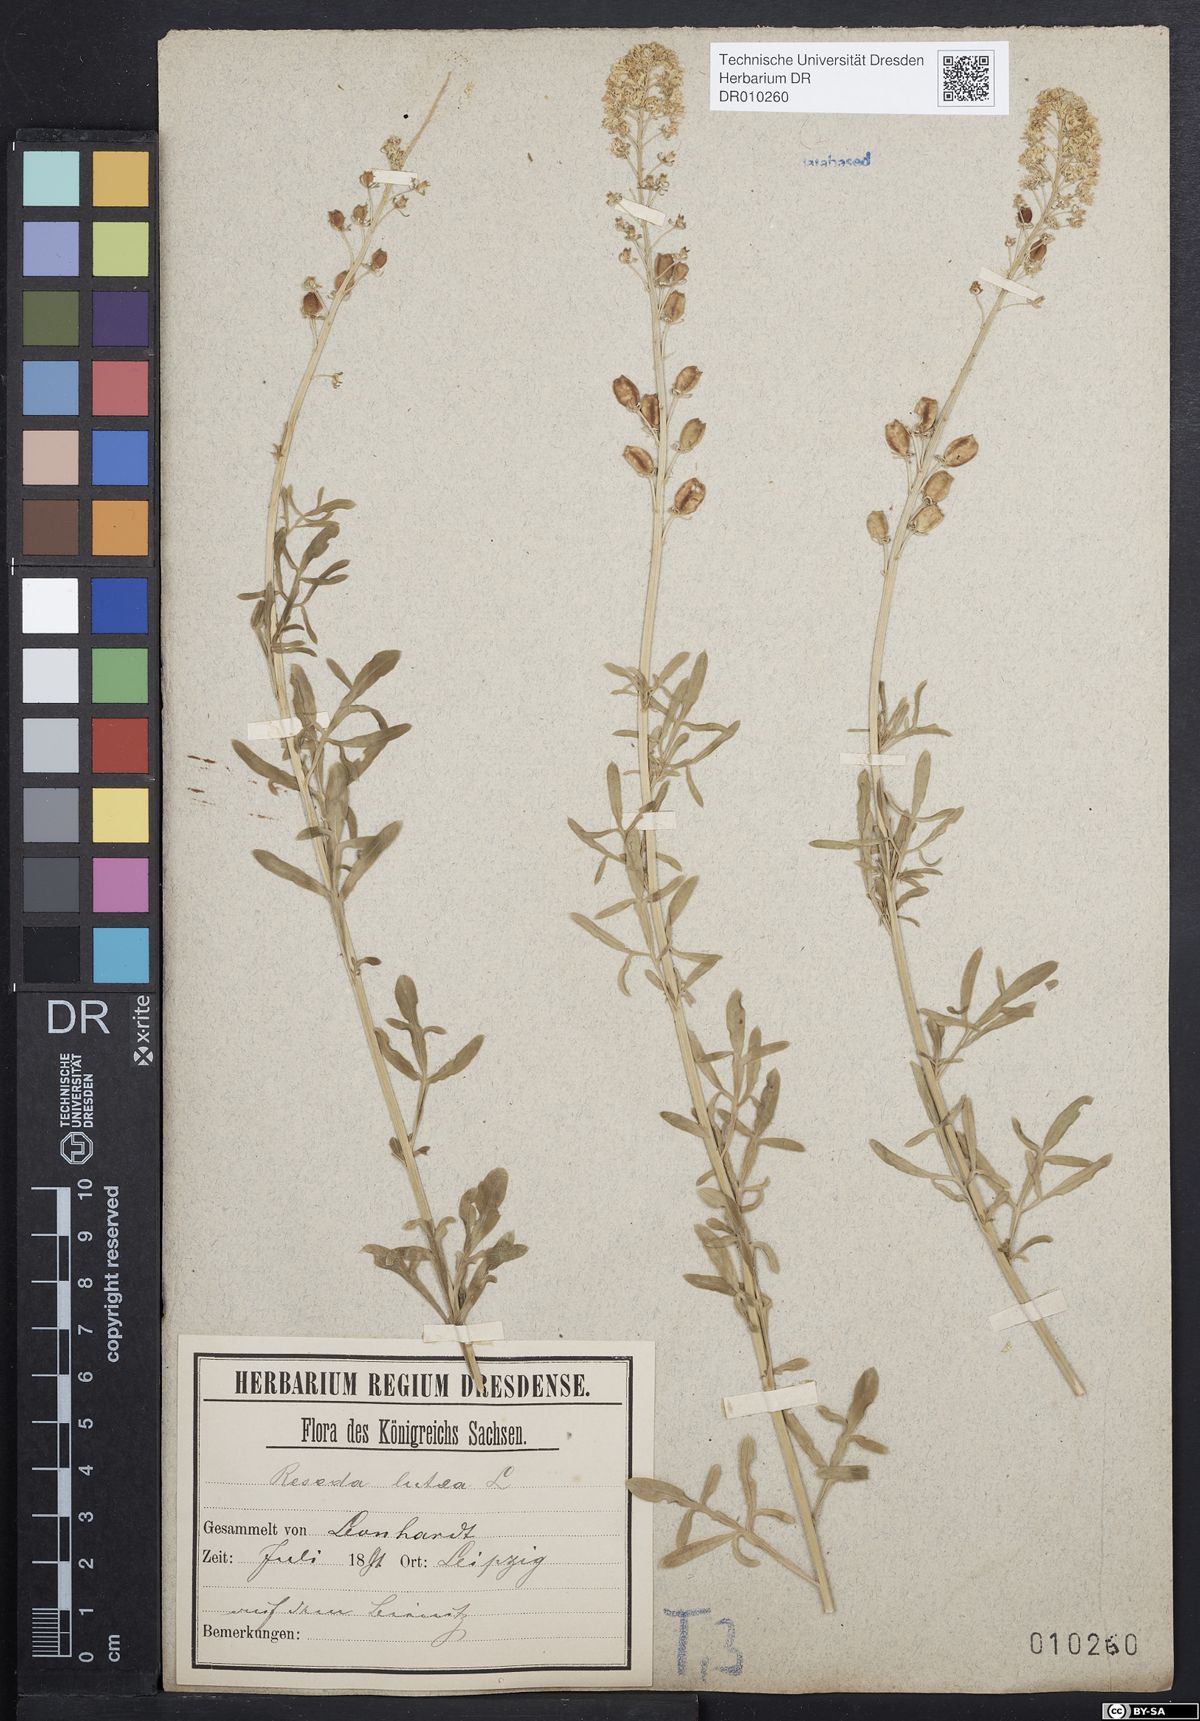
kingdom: Plantae
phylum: Tracheophyta
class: Magnoliopsida
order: Brassicales
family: Resedaceae
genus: Reseda
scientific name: Reseda lutea
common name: Wild mignonette
